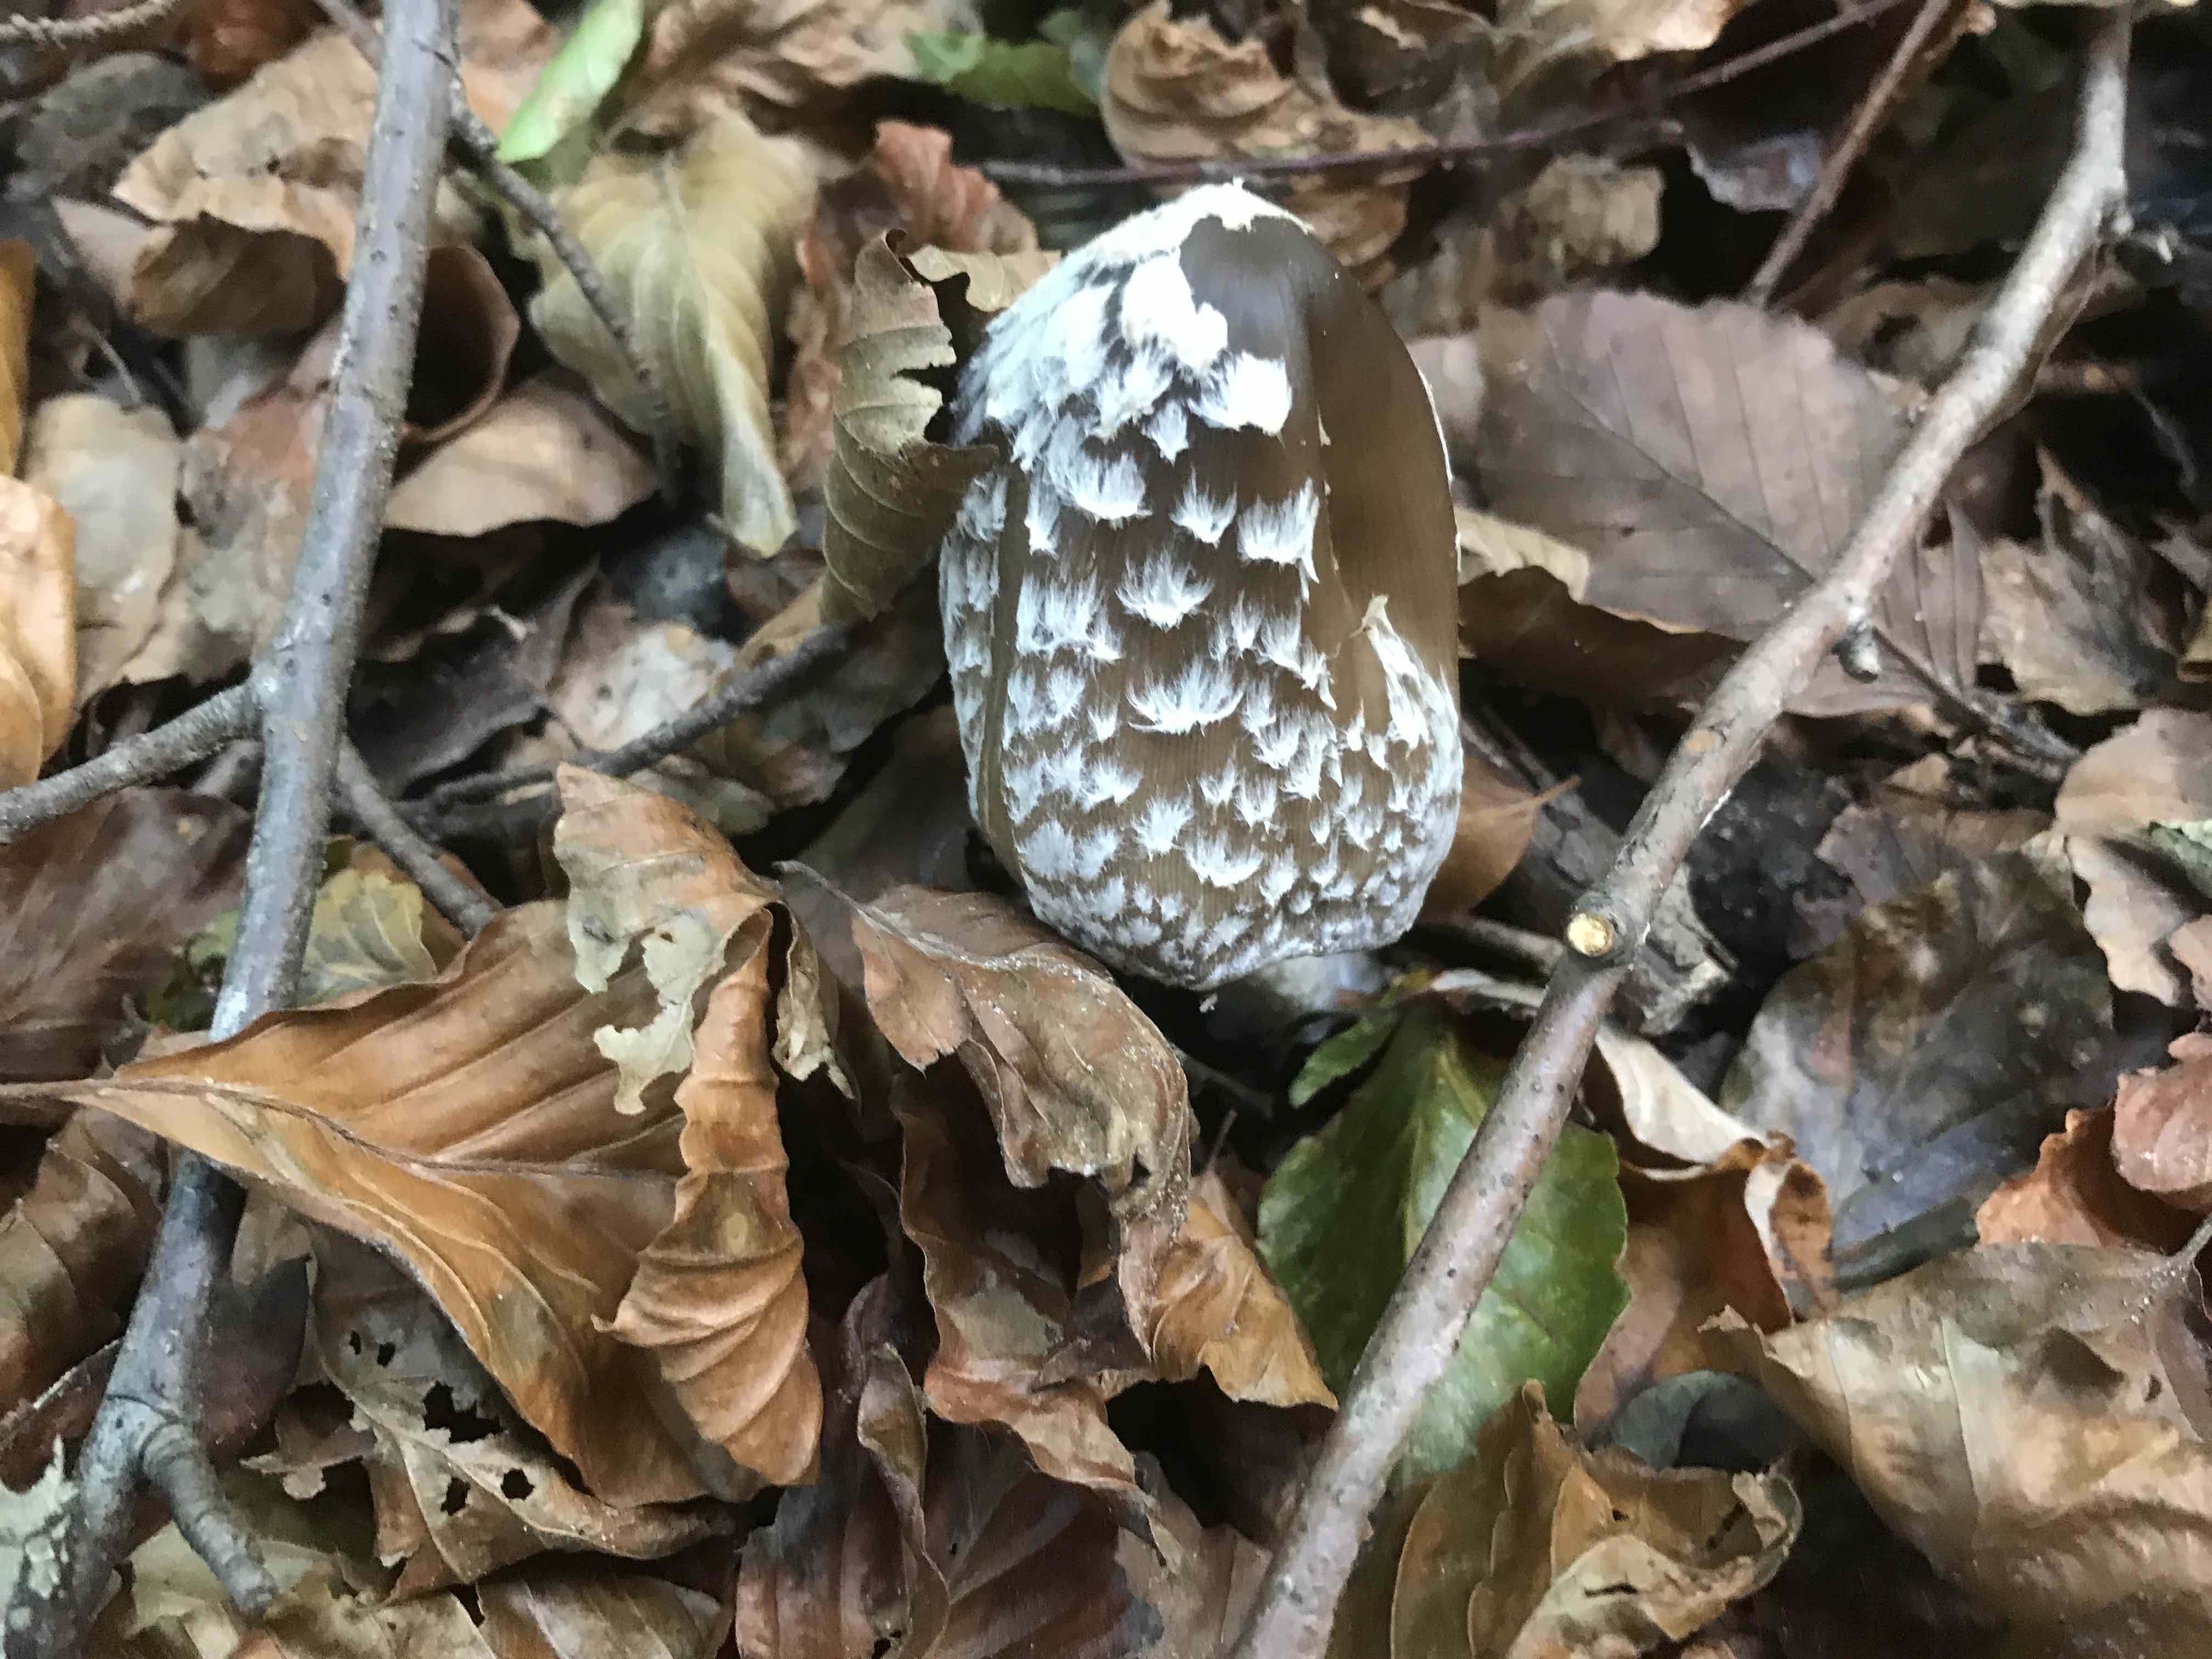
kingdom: Fungi
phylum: Basidiomycota
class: Agaricomycetes
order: Agaricales
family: Psathyrellaceae
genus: Coprinopsis
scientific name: Coprinopsis picacea
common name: skade-blækhat
